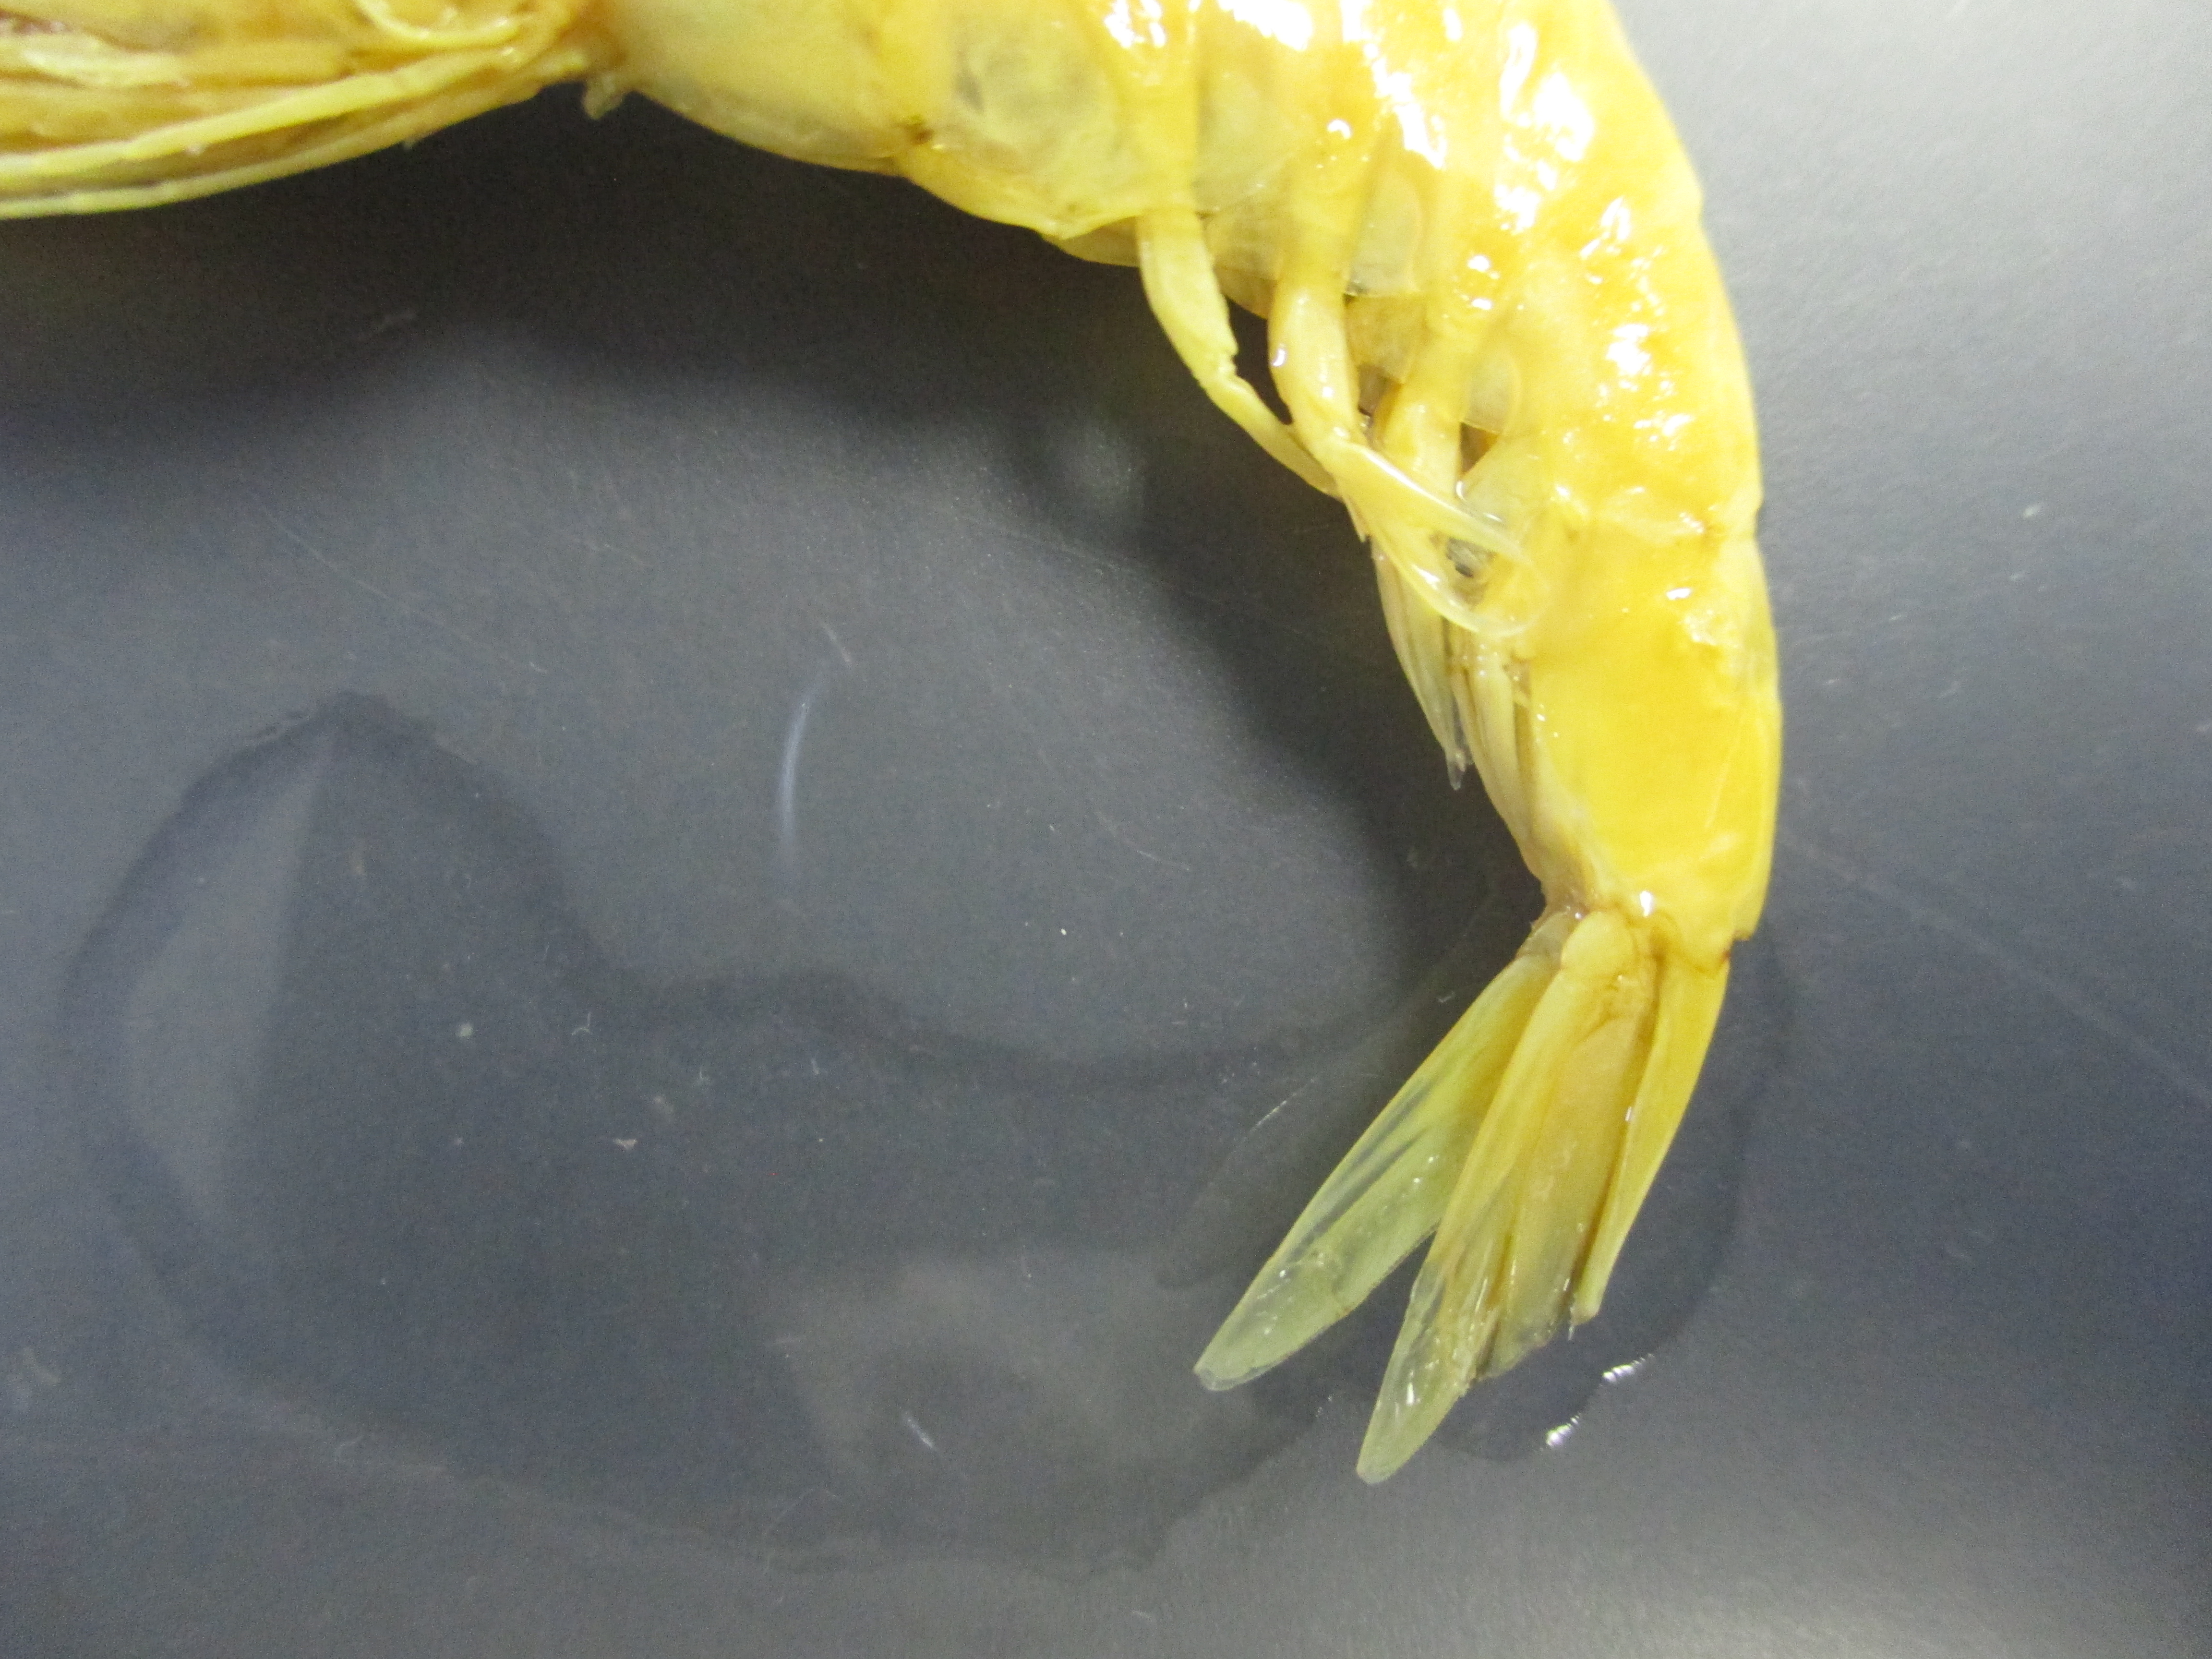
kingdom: Animalia
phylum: Arthropoda
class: Malacostraca
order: Decapoda
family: Pasiphaeidae
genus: Pasiphaea
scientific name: Pasiphaea
